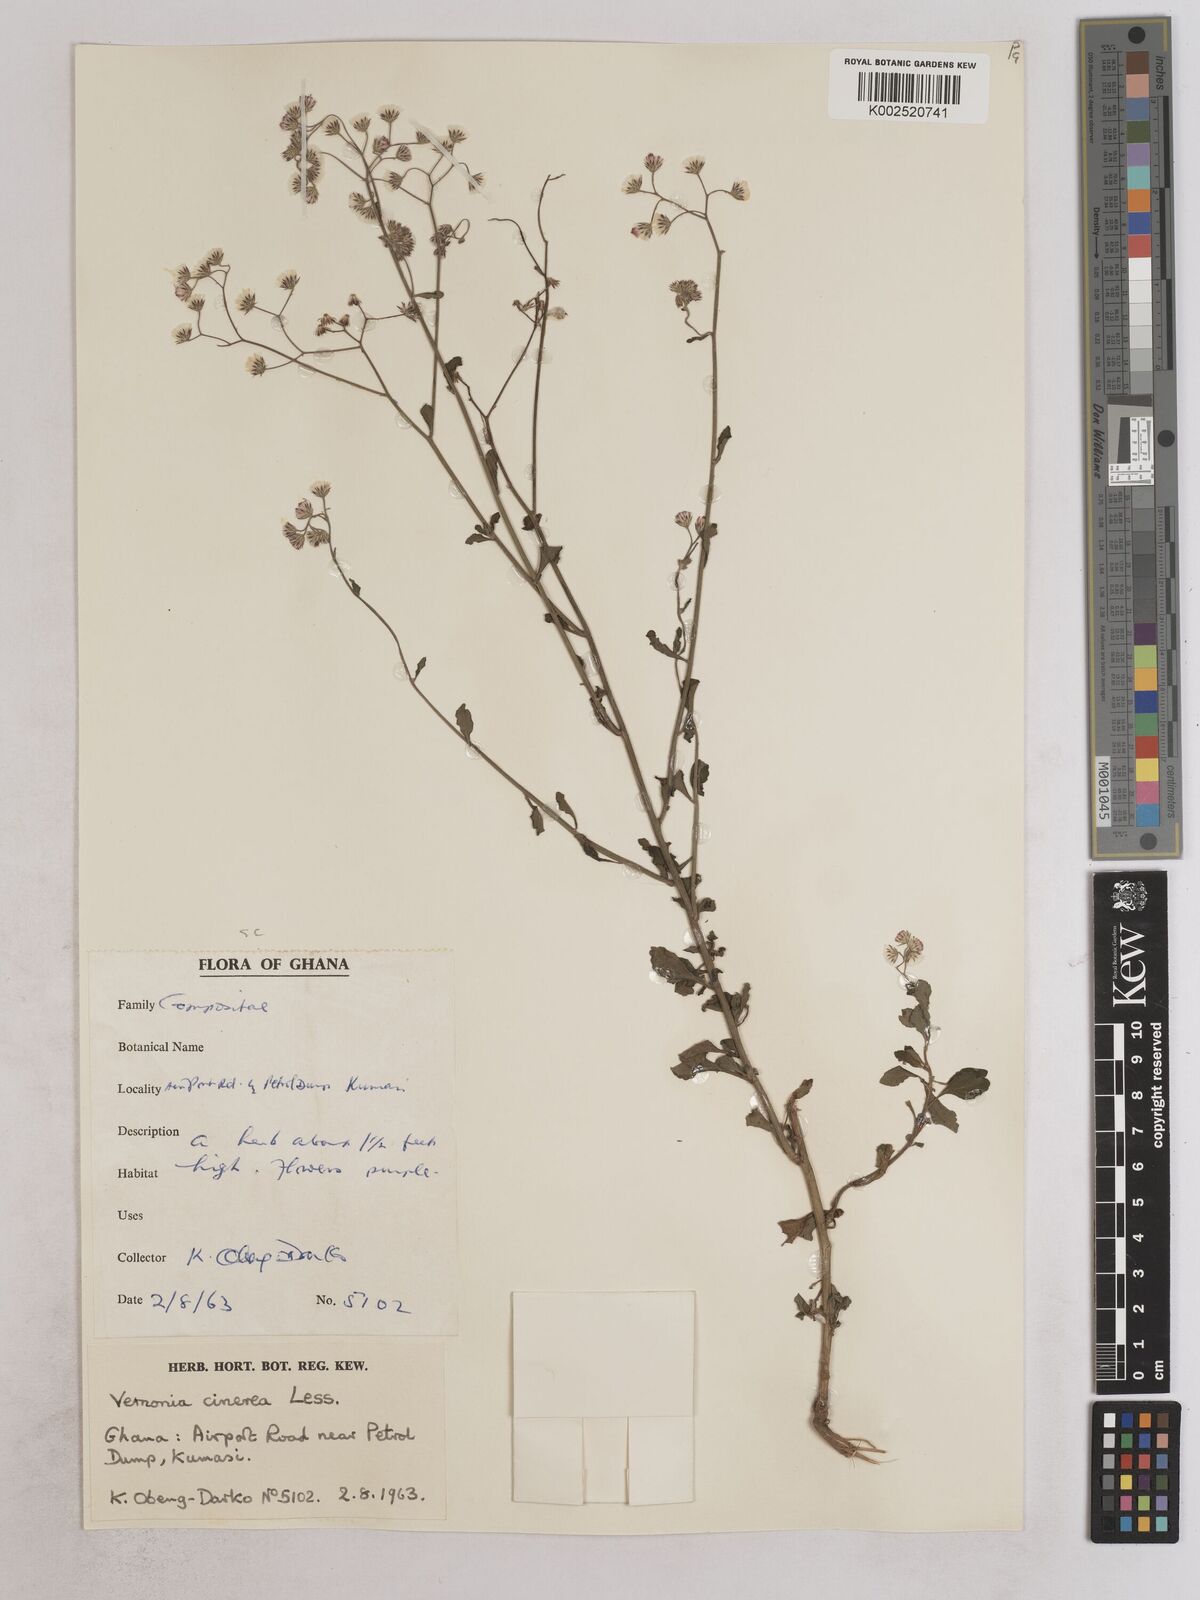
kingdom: Plantae
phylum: Tracheophyta
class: Magnoliopsida
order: Asterales
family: Asteraceae
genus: Cyanthillium
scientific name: Cyanthillium cinereum
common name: Little ironweed
